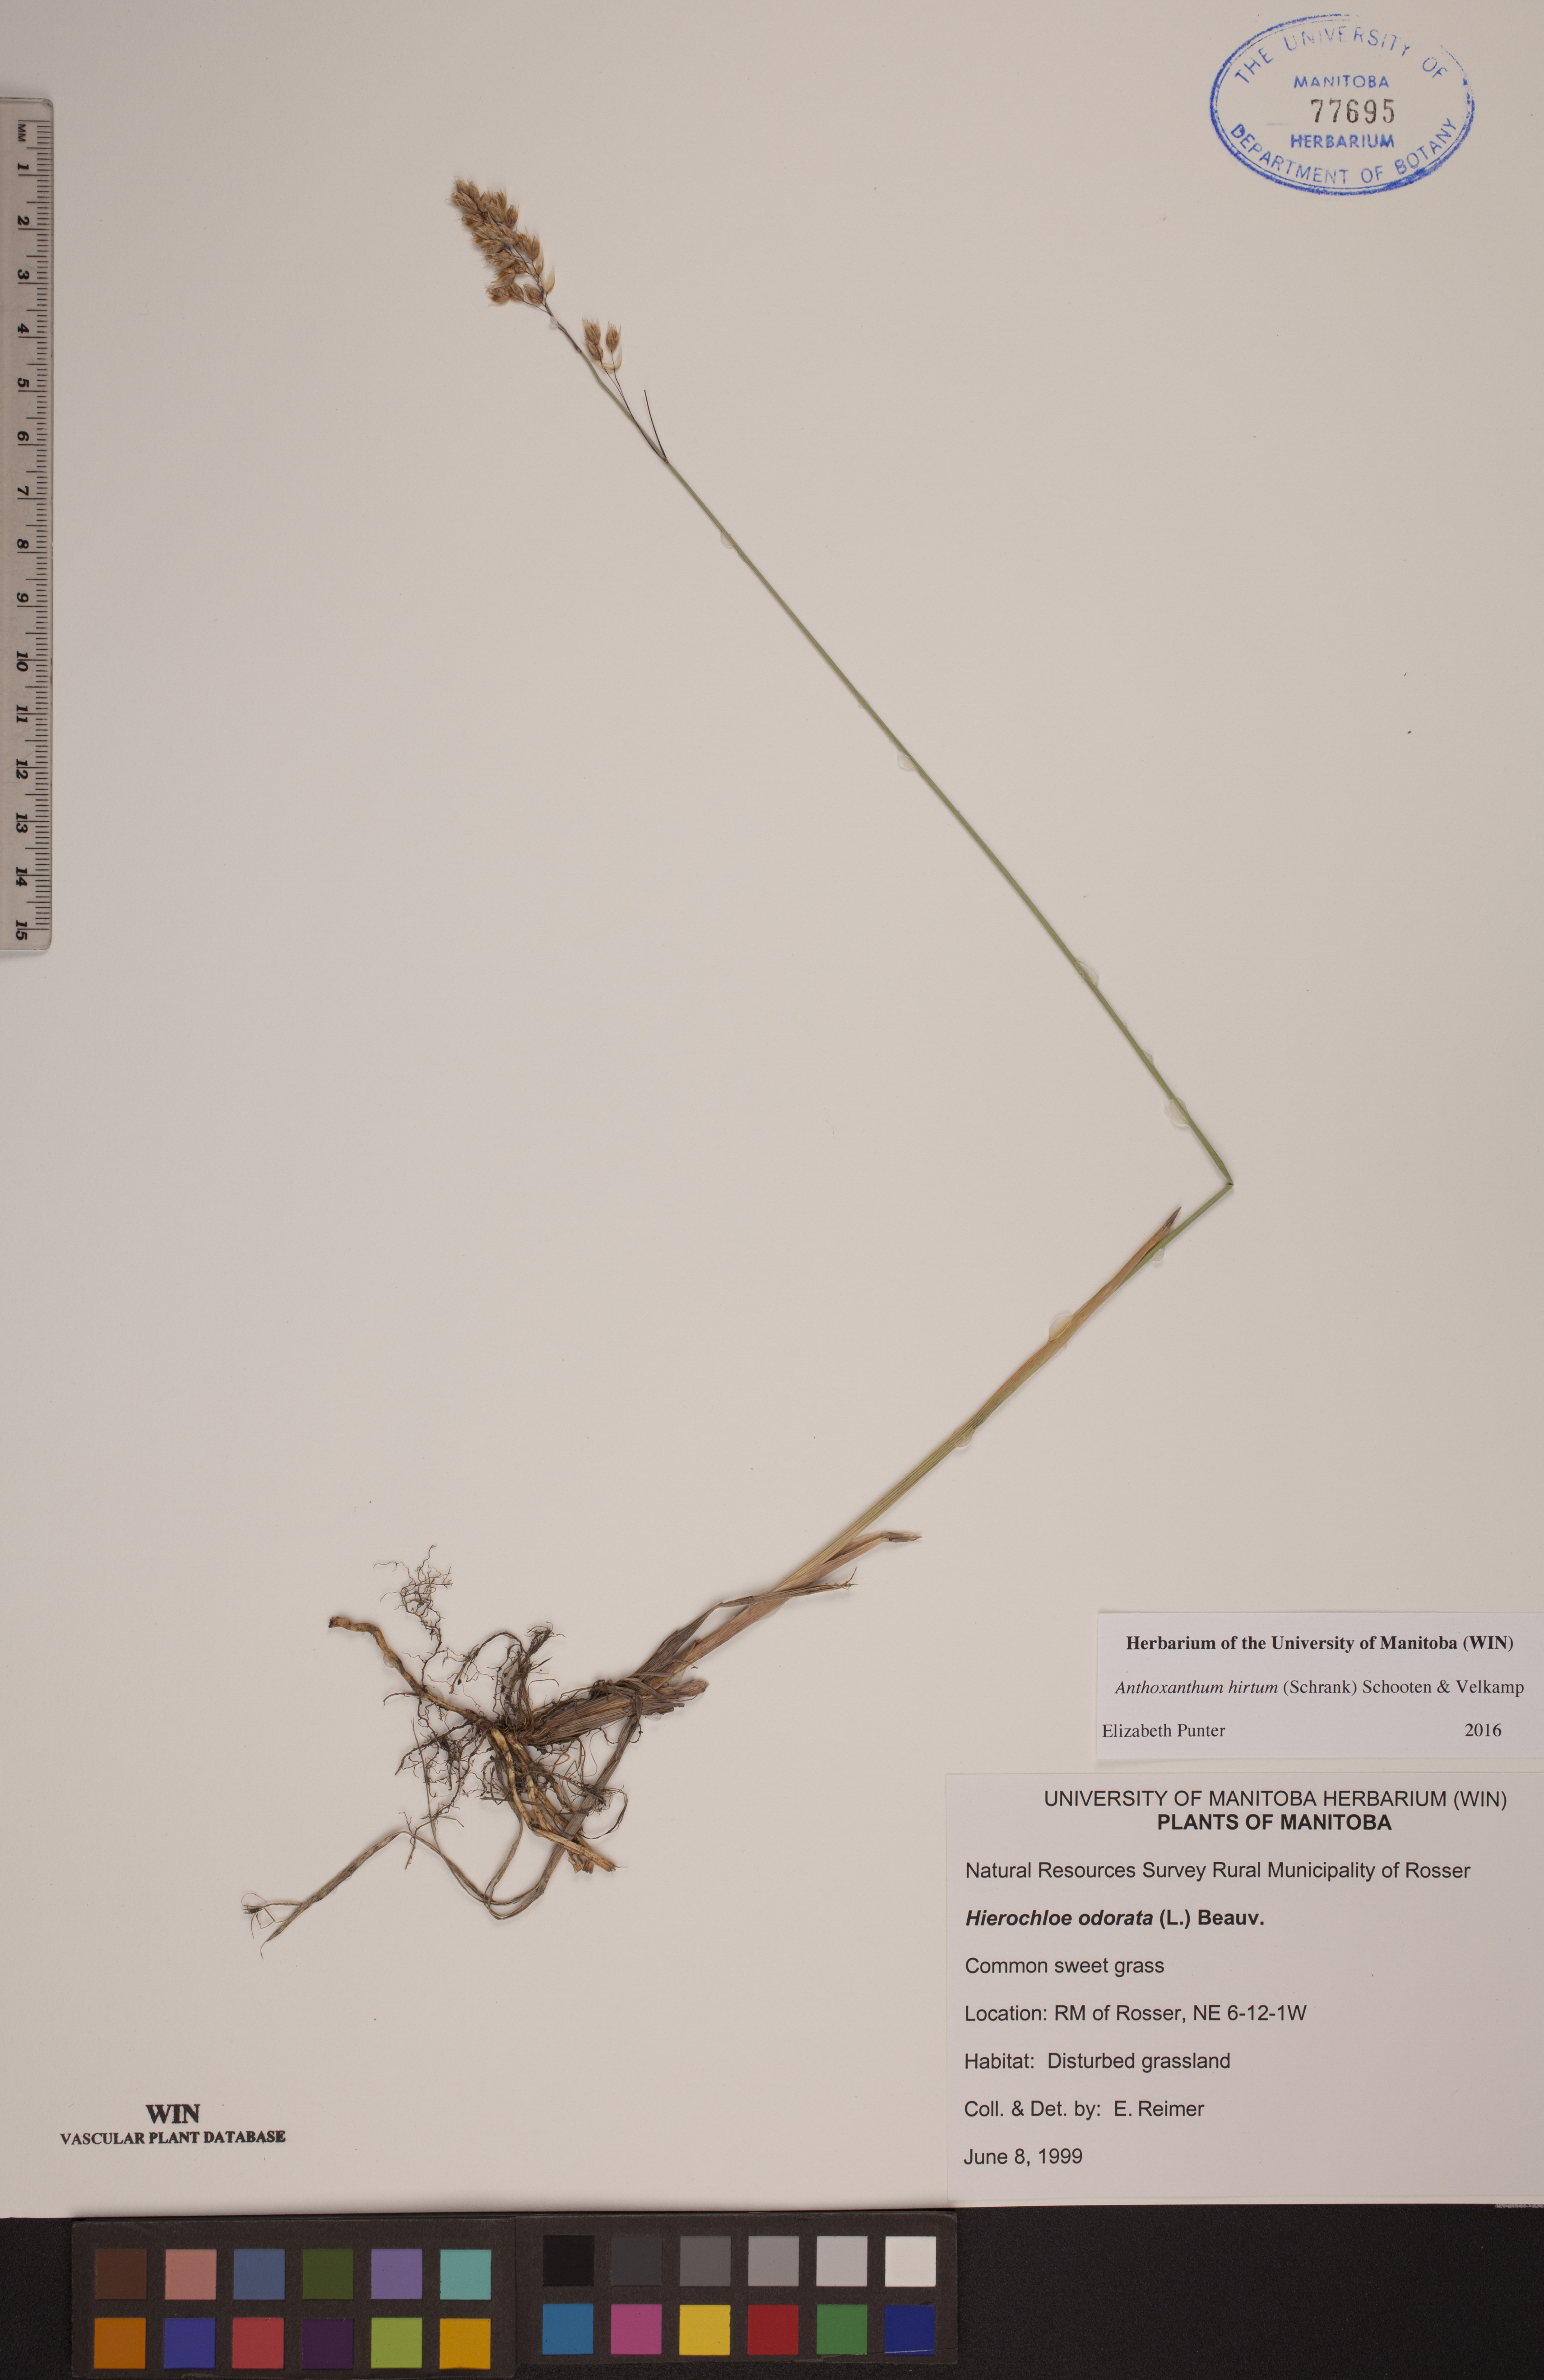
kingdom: Plantae
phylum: Tracheophyta
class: Liliopsida
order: Poales
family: Poaceae
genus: Anthoxanthum
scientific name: Anthoxanthum nitens
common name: Holy grass
